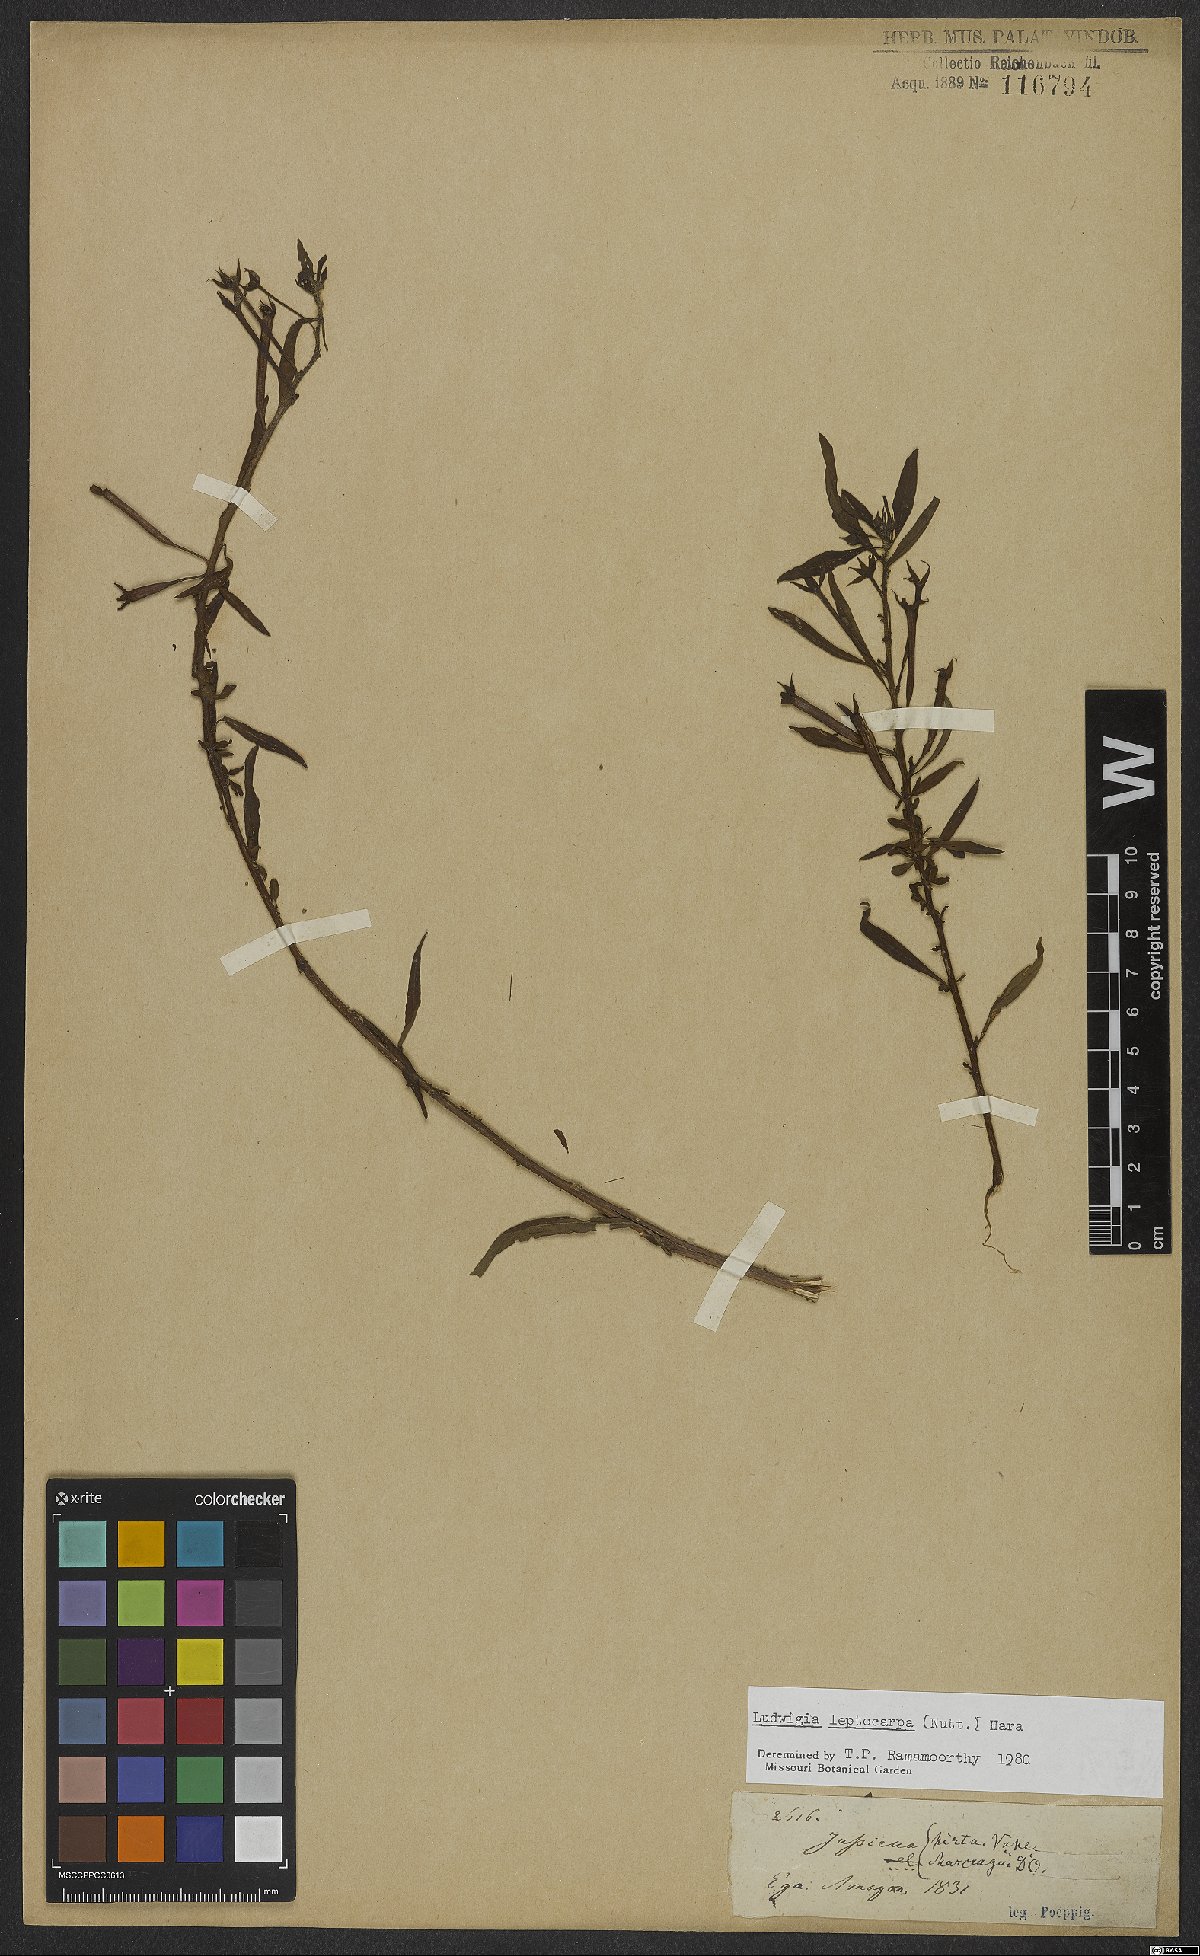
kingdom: Plantae
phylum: Tracheophyta
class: Magnoliopsida
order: Myrtales
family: Onagraceae
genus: Ludwigia
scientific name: Ludwigia leptocarpa
